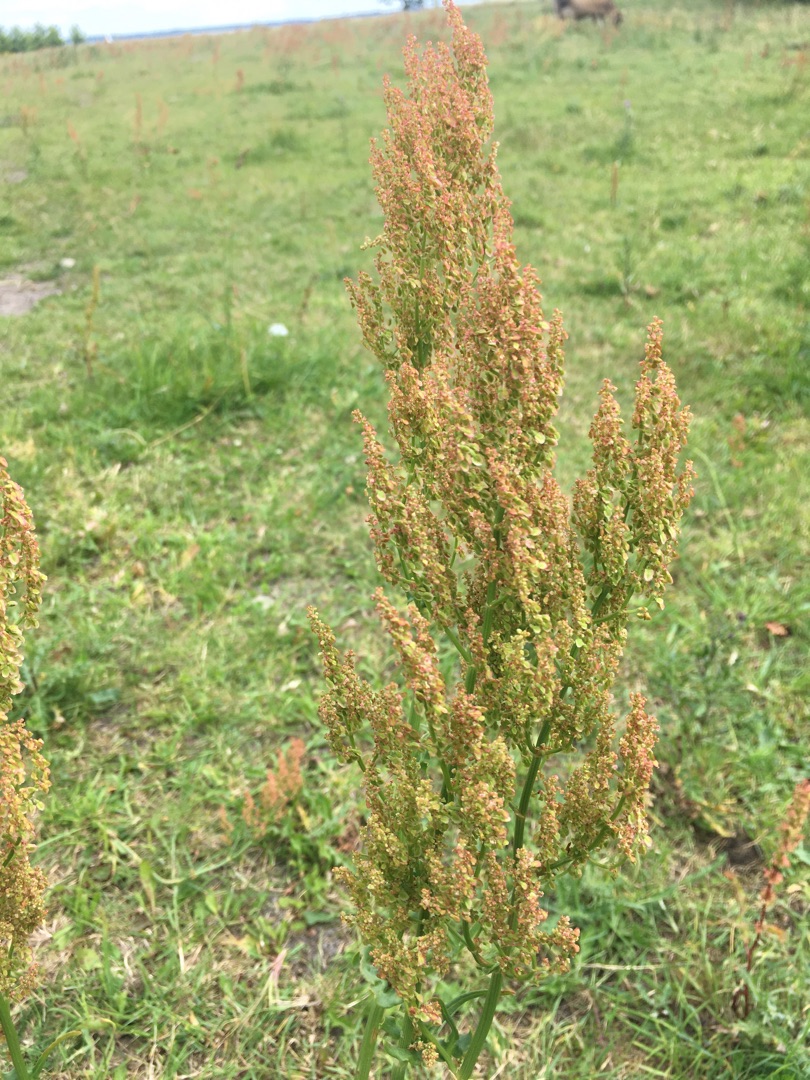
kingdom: Plantae
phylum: Tracheophyta
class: Magnoliopsida
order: Caryophyllales
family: Polygonaceae
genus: Rumex
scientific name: Rumex thyrsiflorus
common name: Dusk-syre
